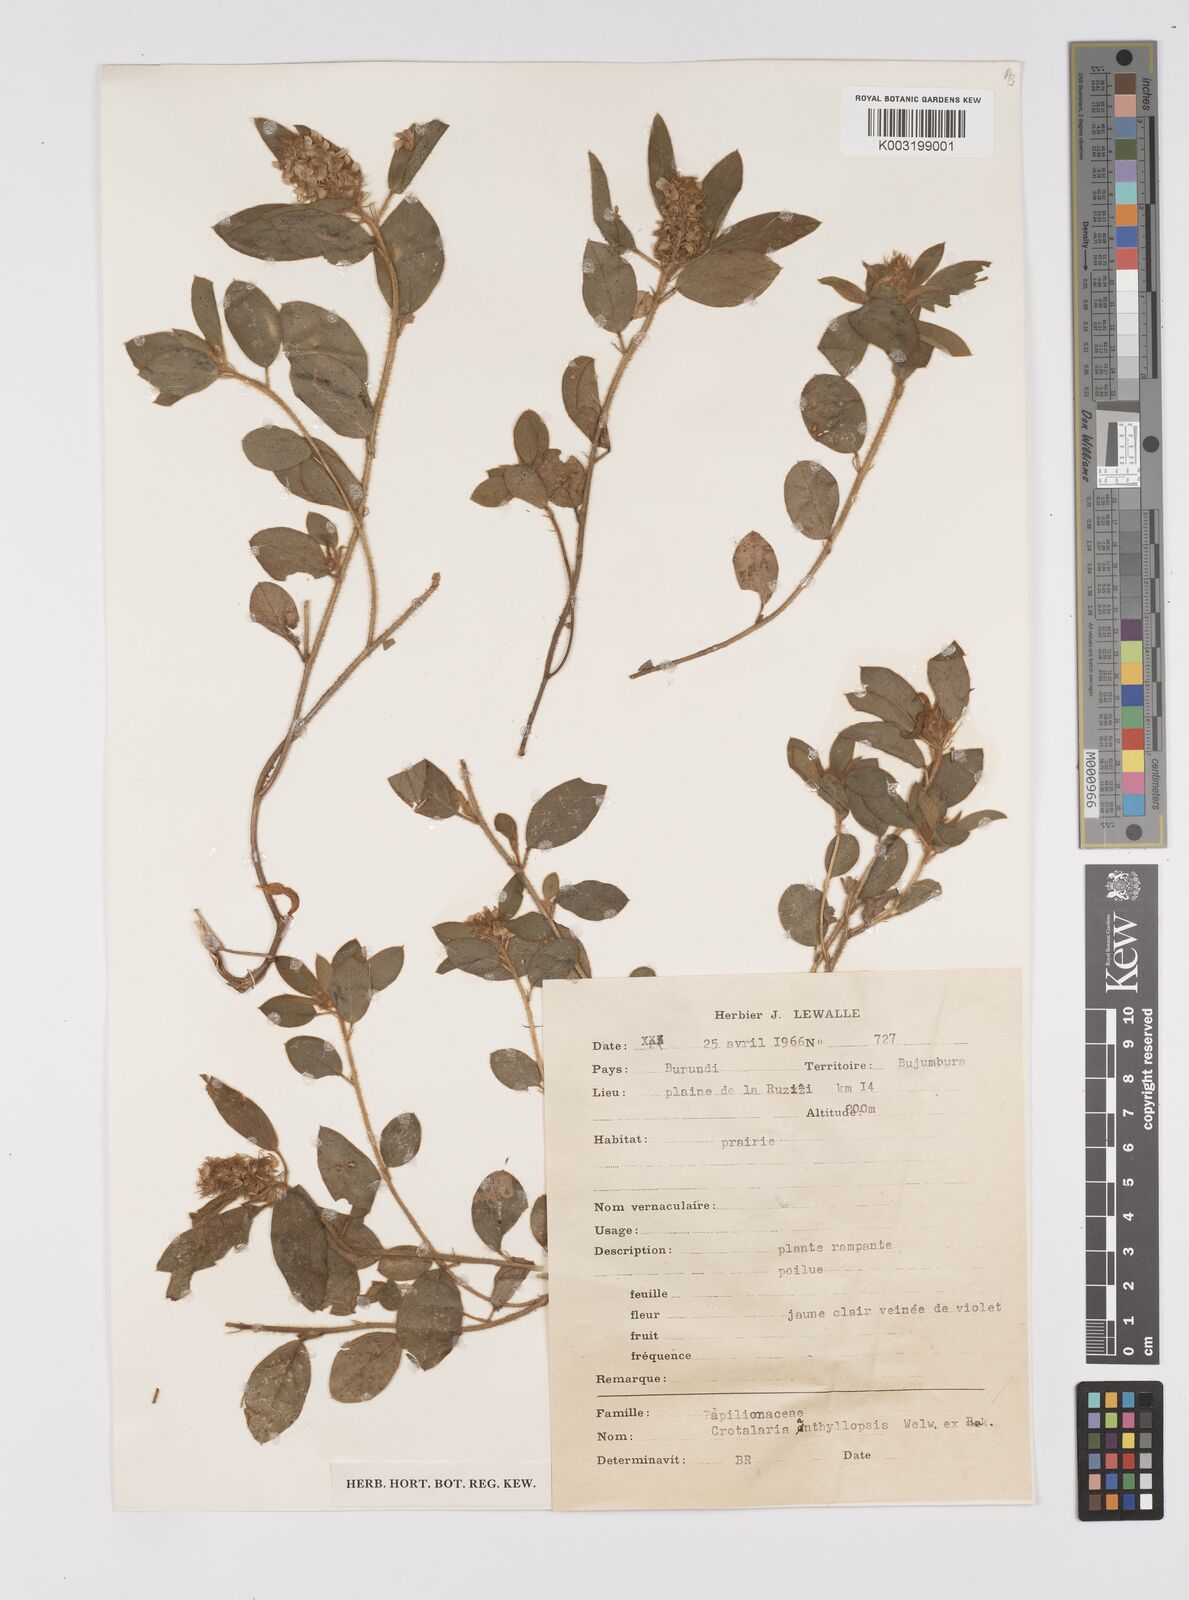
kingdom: Plantae
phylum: Tracheophyta
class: Magnoliopsida
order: Fabales
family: Fabaceae
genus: Crotalaria
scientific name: Crotalaria anthyllopsis
